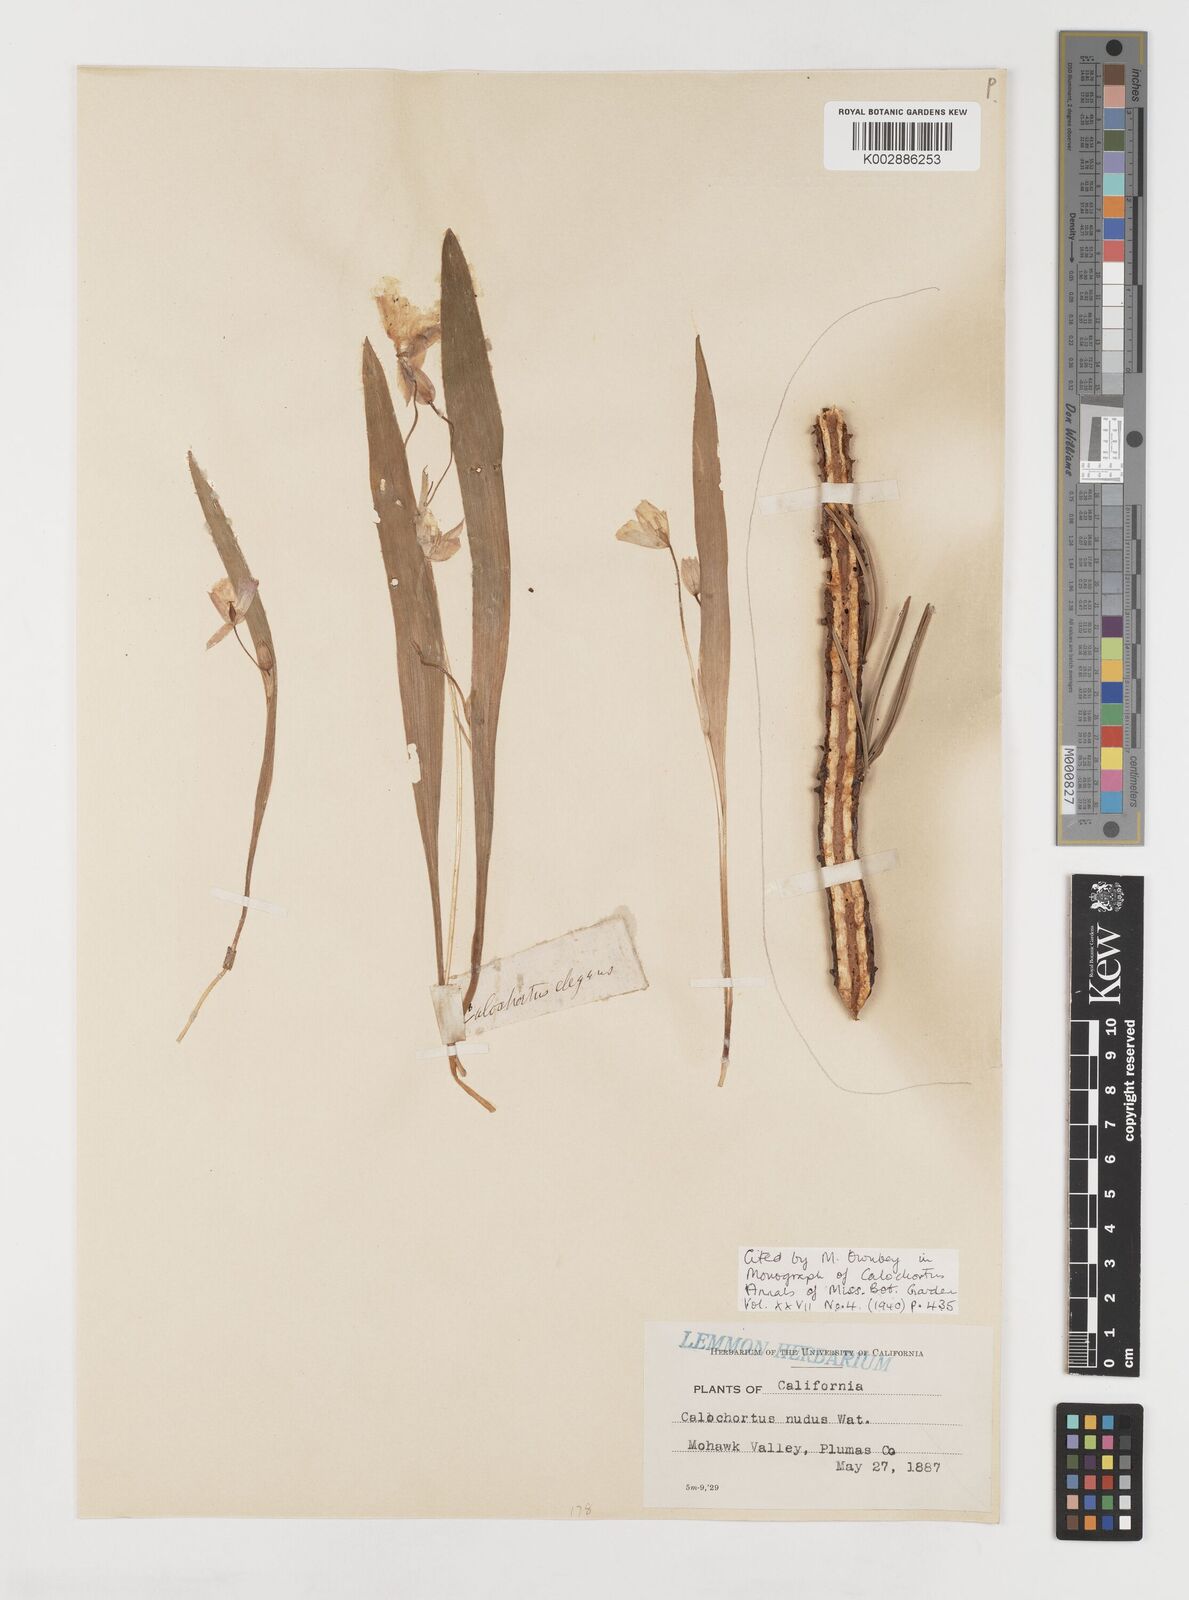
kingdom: Plantae
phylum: Tracheophyta
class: Liliopsida
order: Liliales
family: Liliaceae
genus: Calochortus
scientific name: Calochortus nudus
